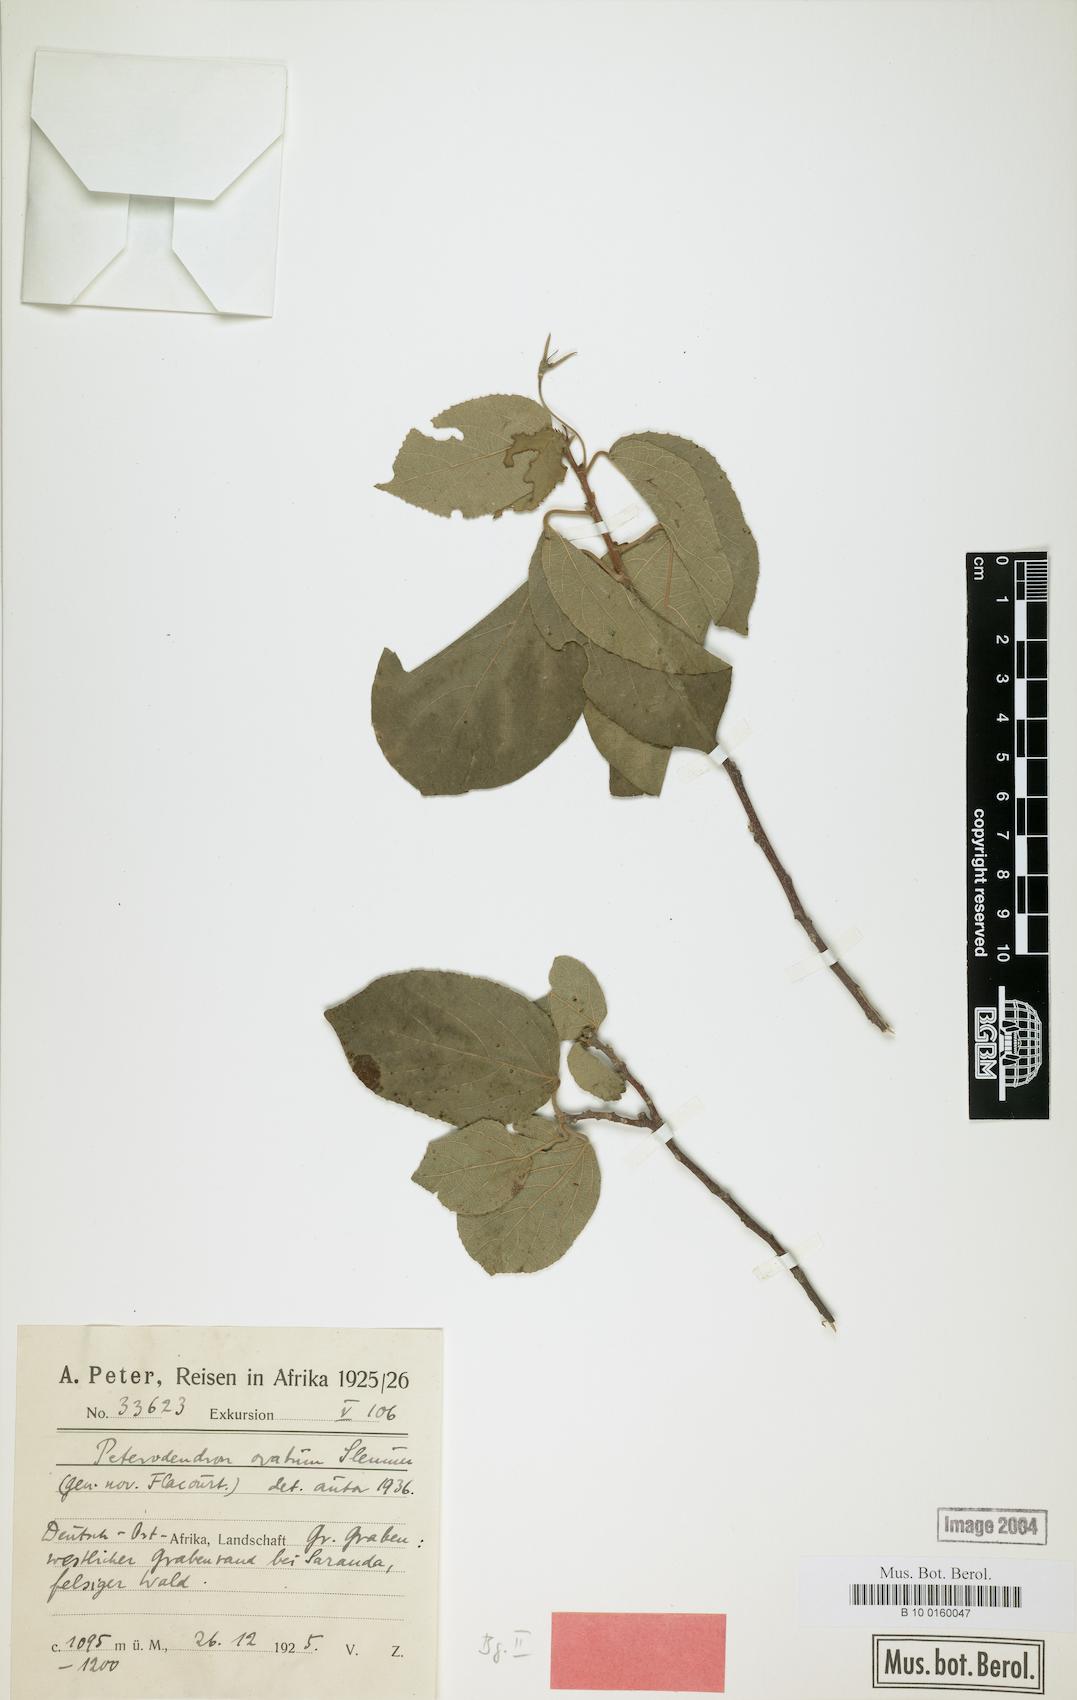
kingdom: Plantae
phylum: Tracheophyta
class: Magnoliopsida
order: Malpighiales
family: Achariaceae
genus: Peterodendron
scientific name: Peterodendron ovatum
